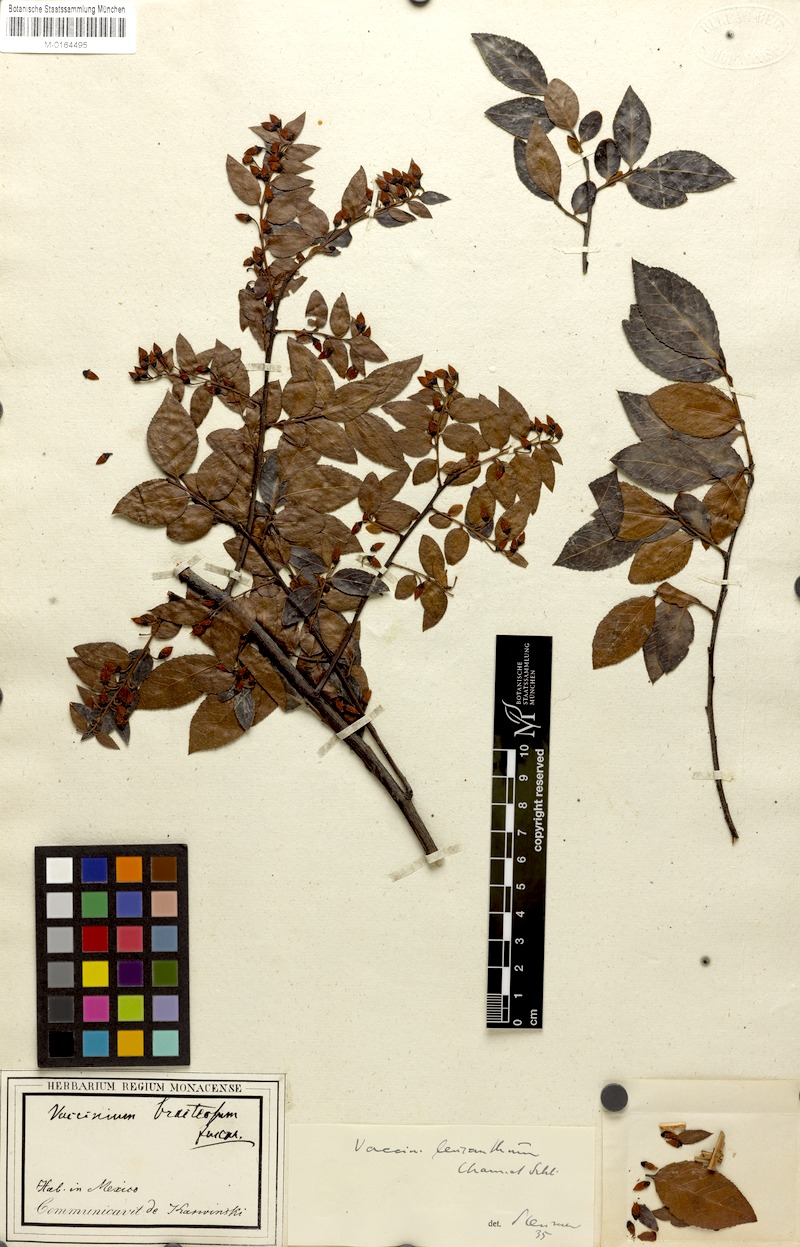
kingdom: Plantae
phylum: Tracheophyta
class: Magnoliopsida
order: Ericales
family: Ericaceae
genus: Vaccinium
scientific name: Vaccinium leucanthum
